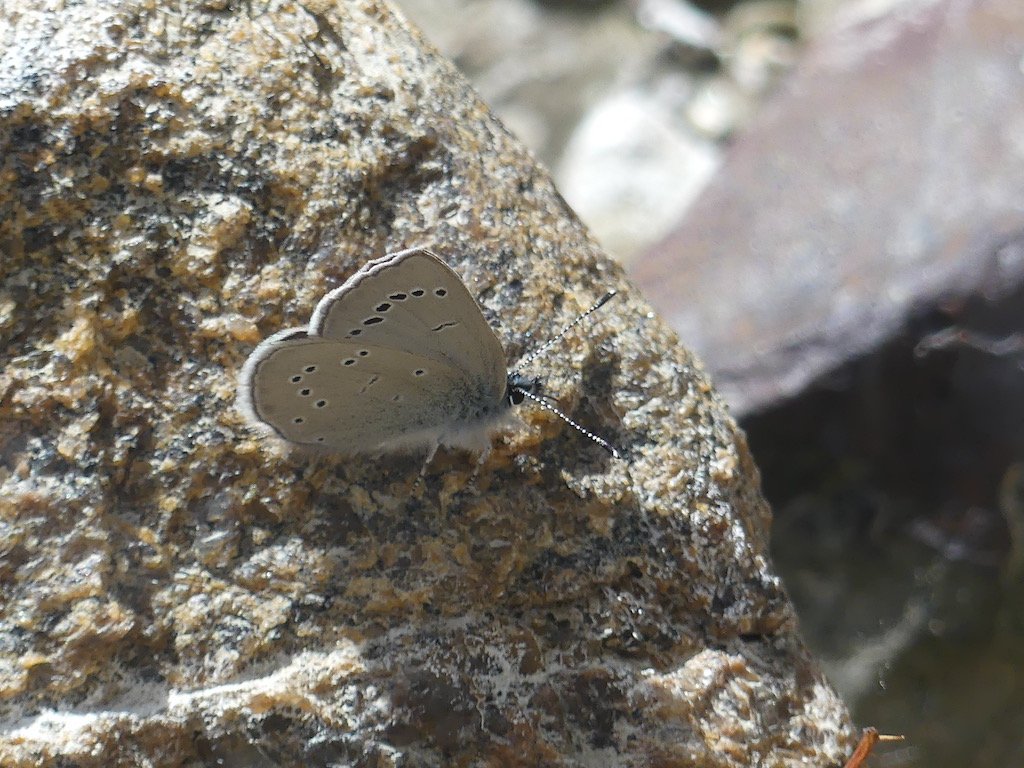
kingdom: Animalia
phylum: Arthropoda
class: Insecta
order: Lepidoptera
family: Lycaenidae
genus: Glaucopsyche
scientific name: Glaucopsyche lygdamus
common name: Silvery Blue
